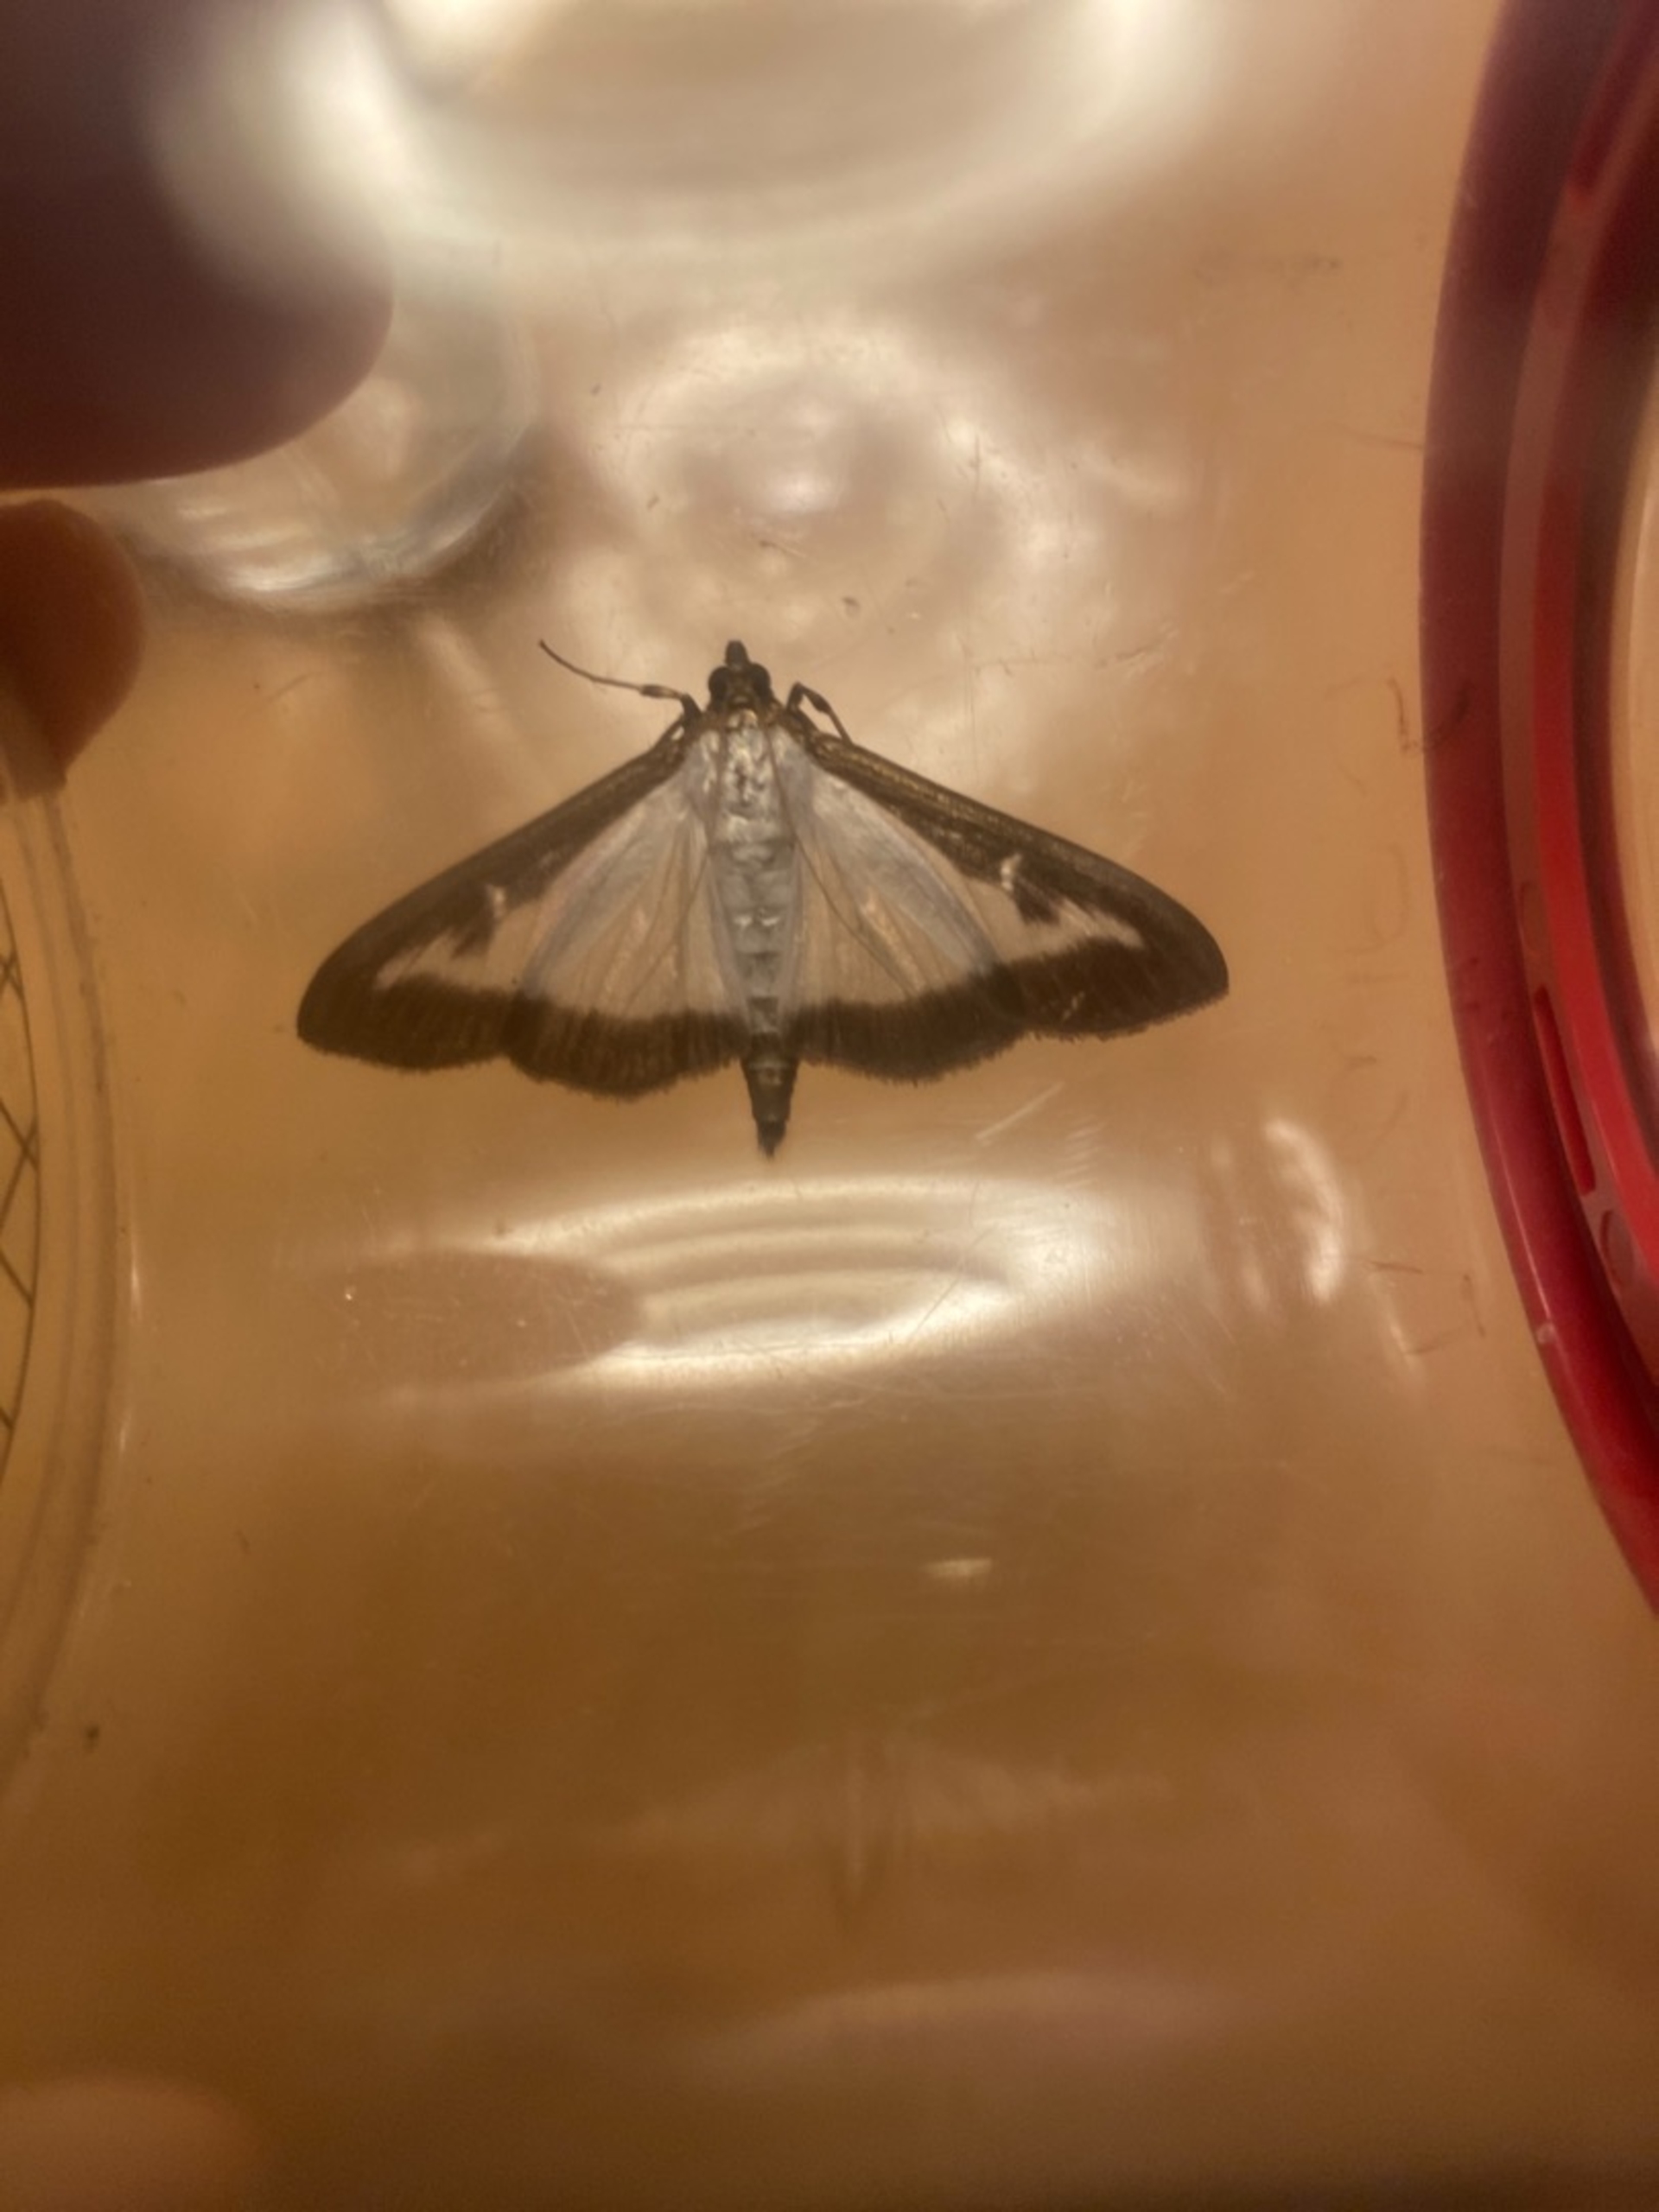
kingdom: Animalia
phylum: Arthropoda
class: Insecta
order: Lepidoptera
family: Crambidae
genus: Cydalima
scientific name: Cydalima perspectalis
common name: Buksbomhalvmøl
